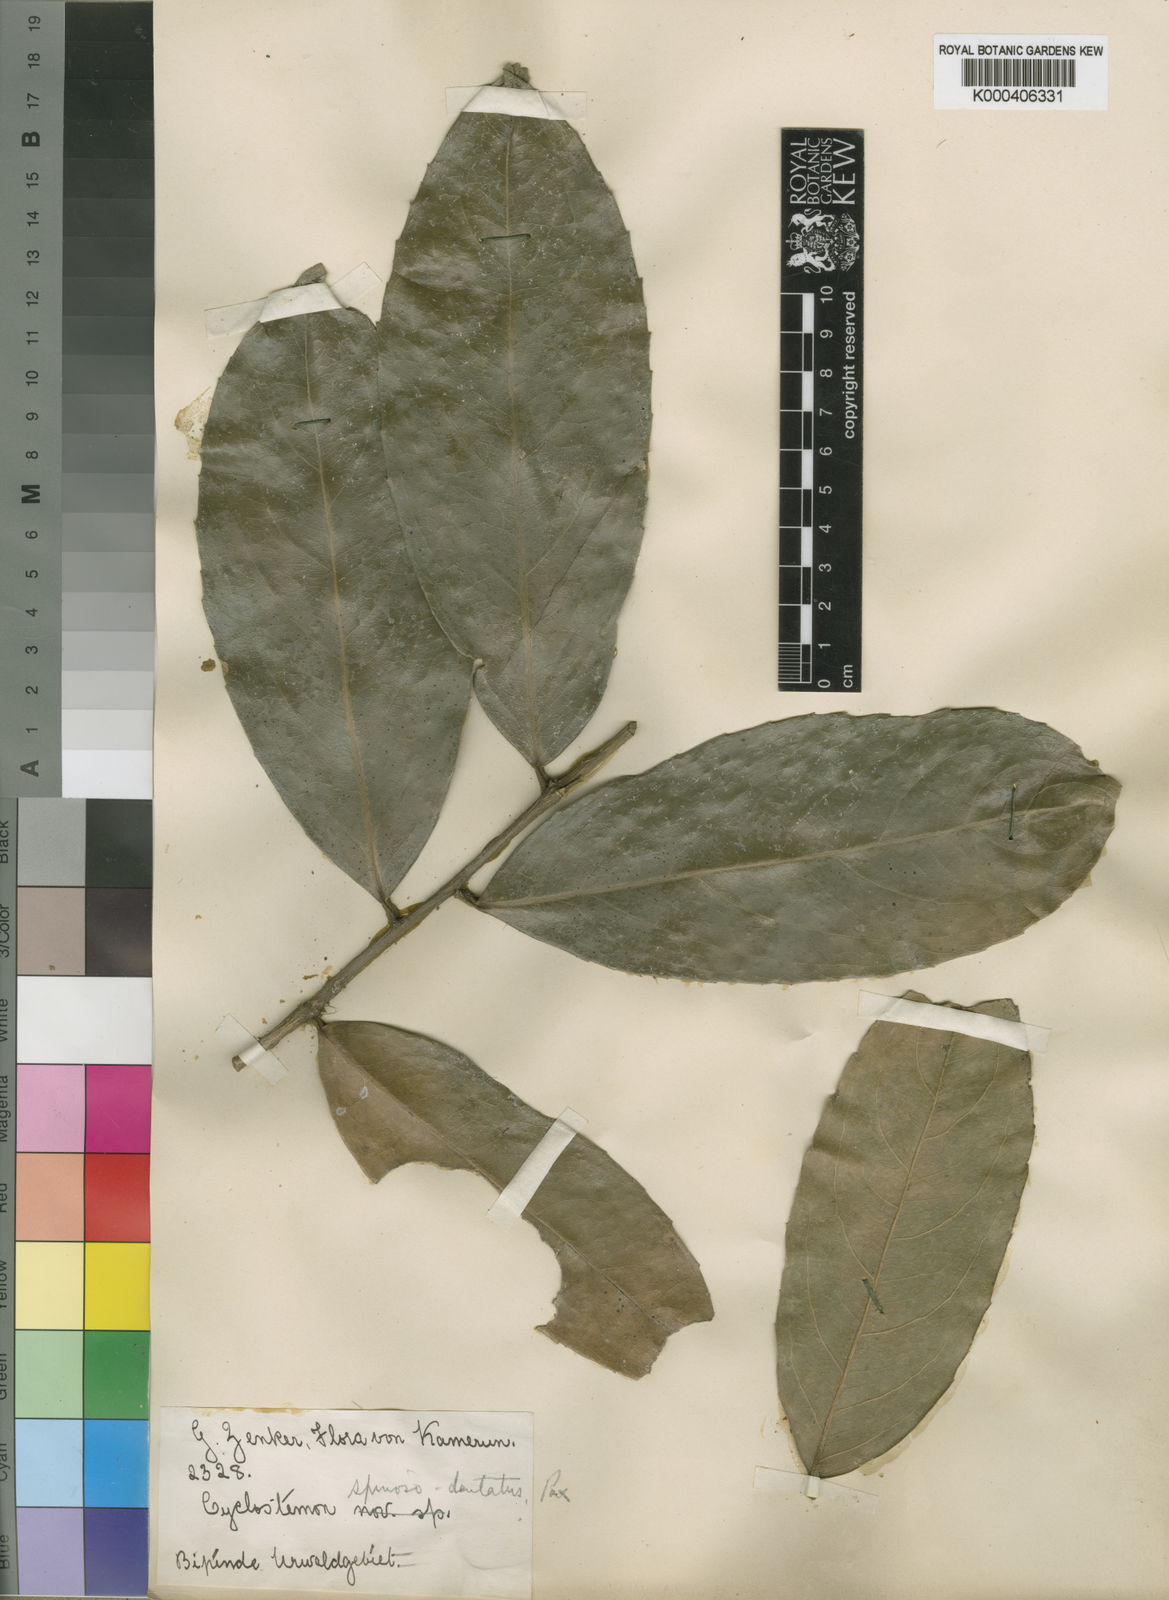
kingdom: Plantae
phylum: Tracheophyta
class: Magnoliopsida
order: Malpighiales
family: Putranjivaceae
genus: Drypetes
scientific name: Drypetes spinosodentata
